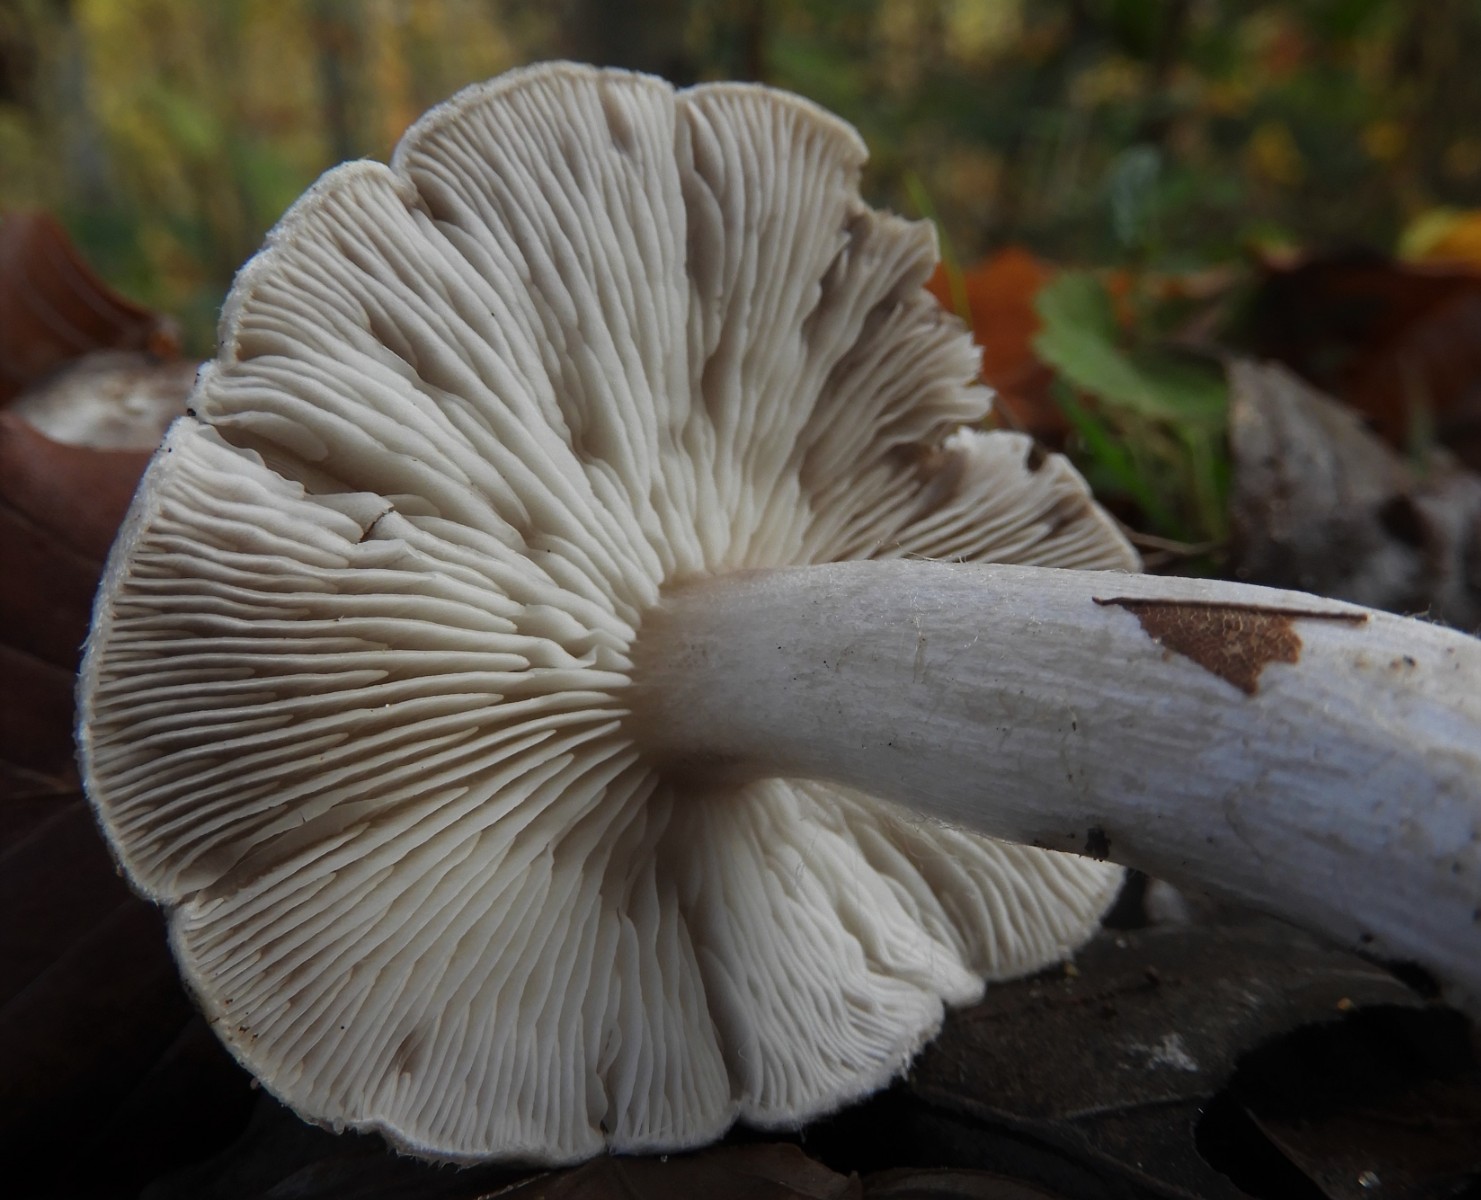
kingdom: Fungi
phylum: Basidiomycota
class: Agaricomycetes
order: Agaricales
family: Tricholomataceae
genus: Tricholoma
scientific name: Tricholoma terreum
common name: jordfarvet ridderhat
